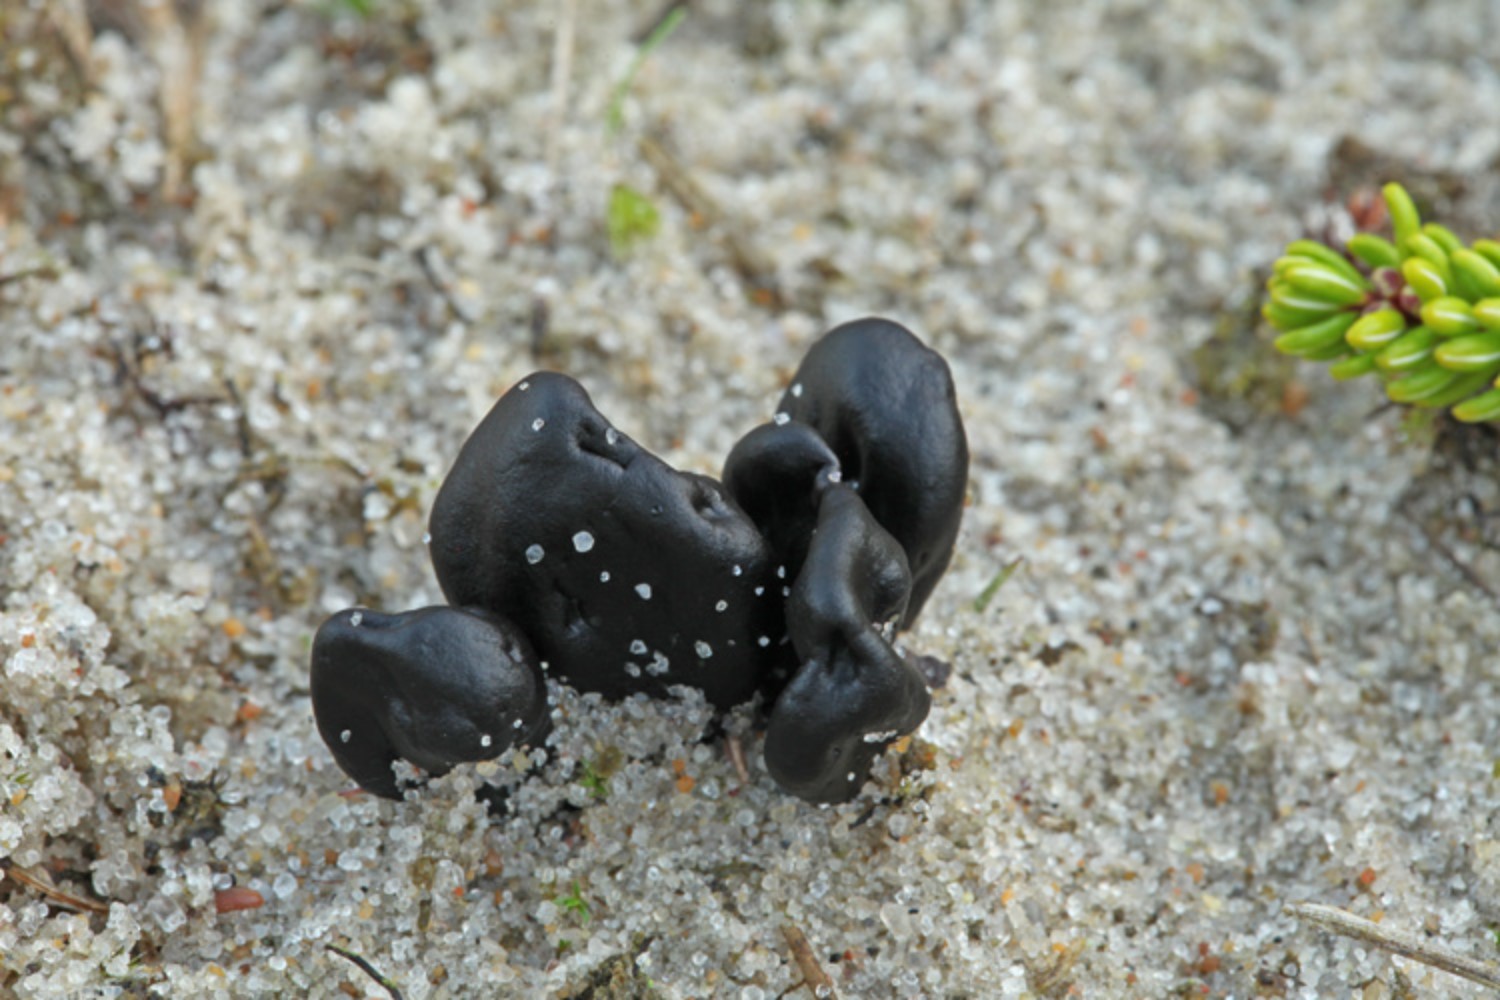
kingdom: Fungi
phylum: Ascomycota
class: Geoglossomycetes
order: Geoglossales
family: Geoglossaceae
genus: Sabuloglossum
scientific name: Sabuloglossum arenarium
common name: klit-jordtunge
